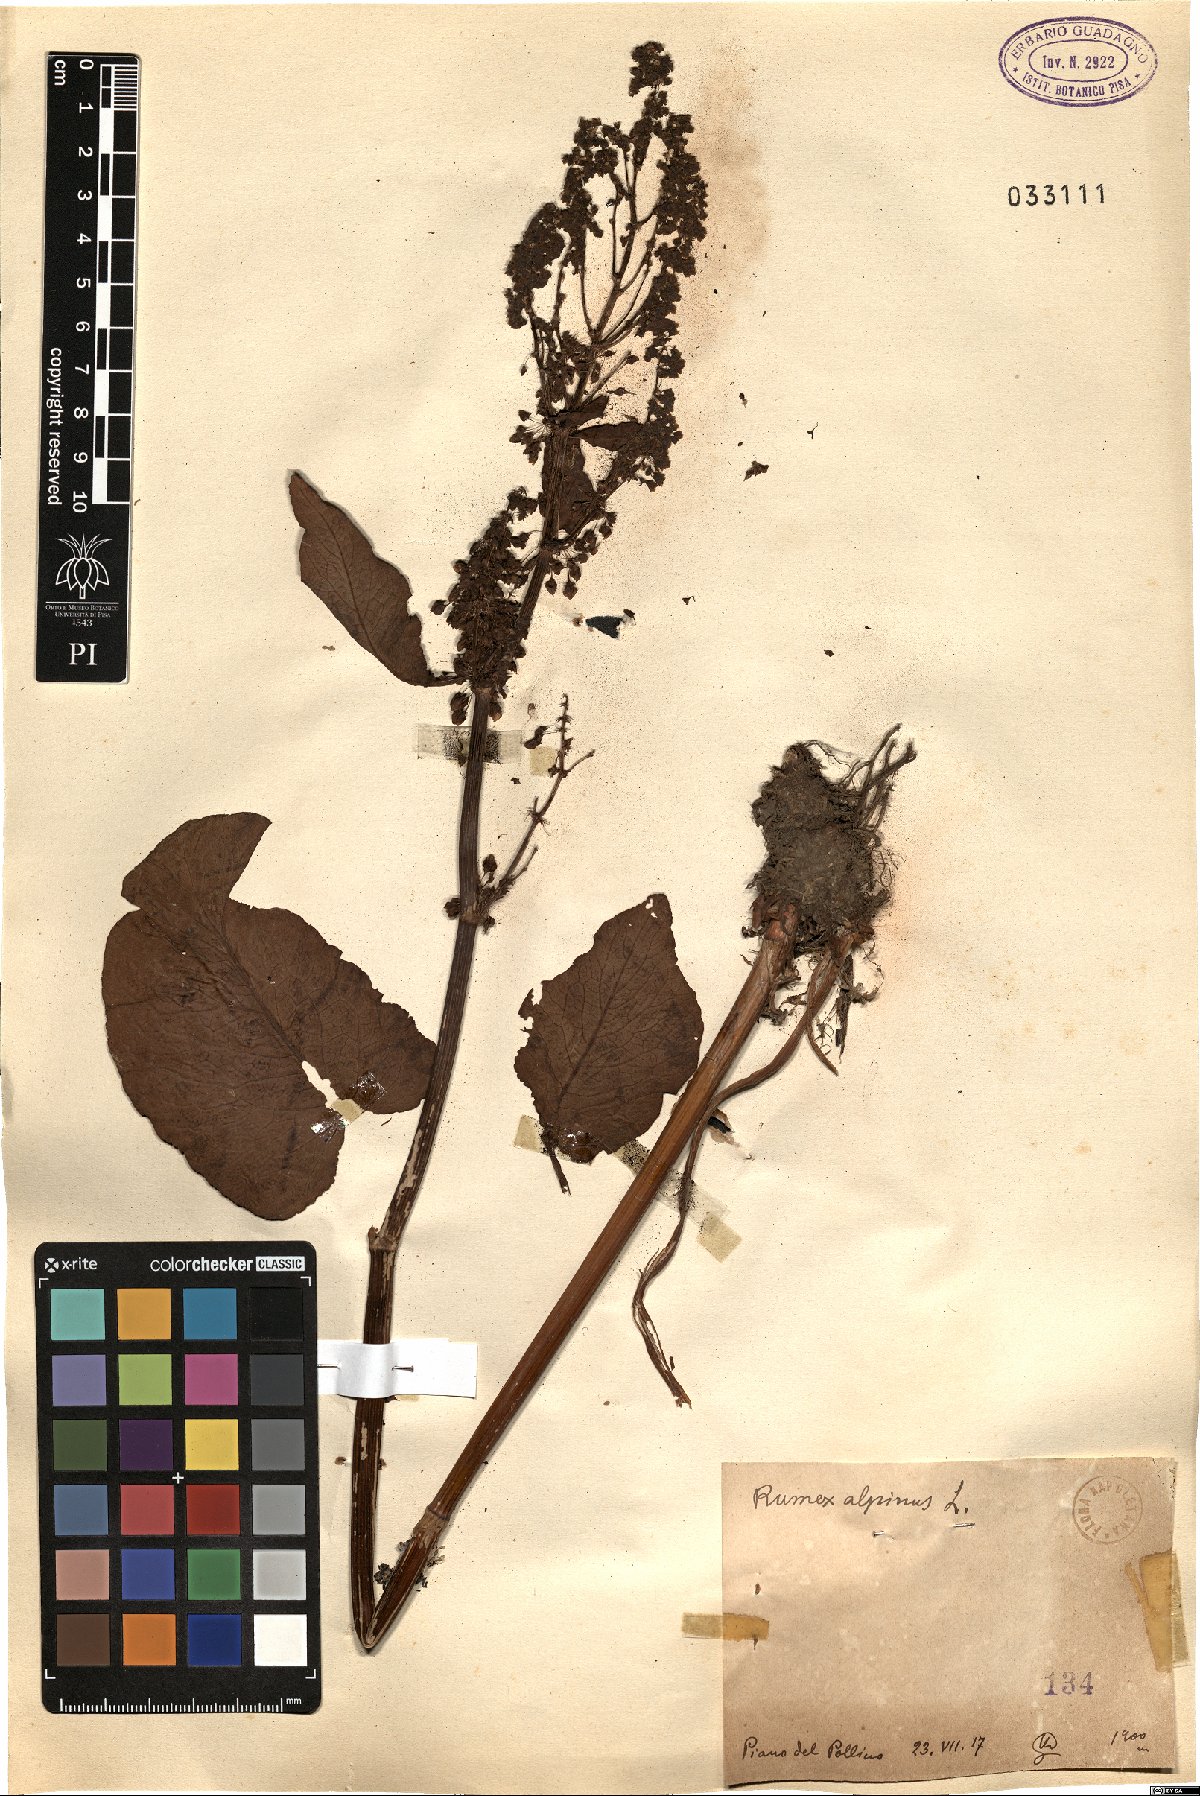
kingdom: Plantae
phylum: Tracheophyta
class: Magnoliopsida
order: Caryophyllales
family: Polygonaceae
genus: Rumex
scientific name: Rumex alpinus
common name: Alpine dock
